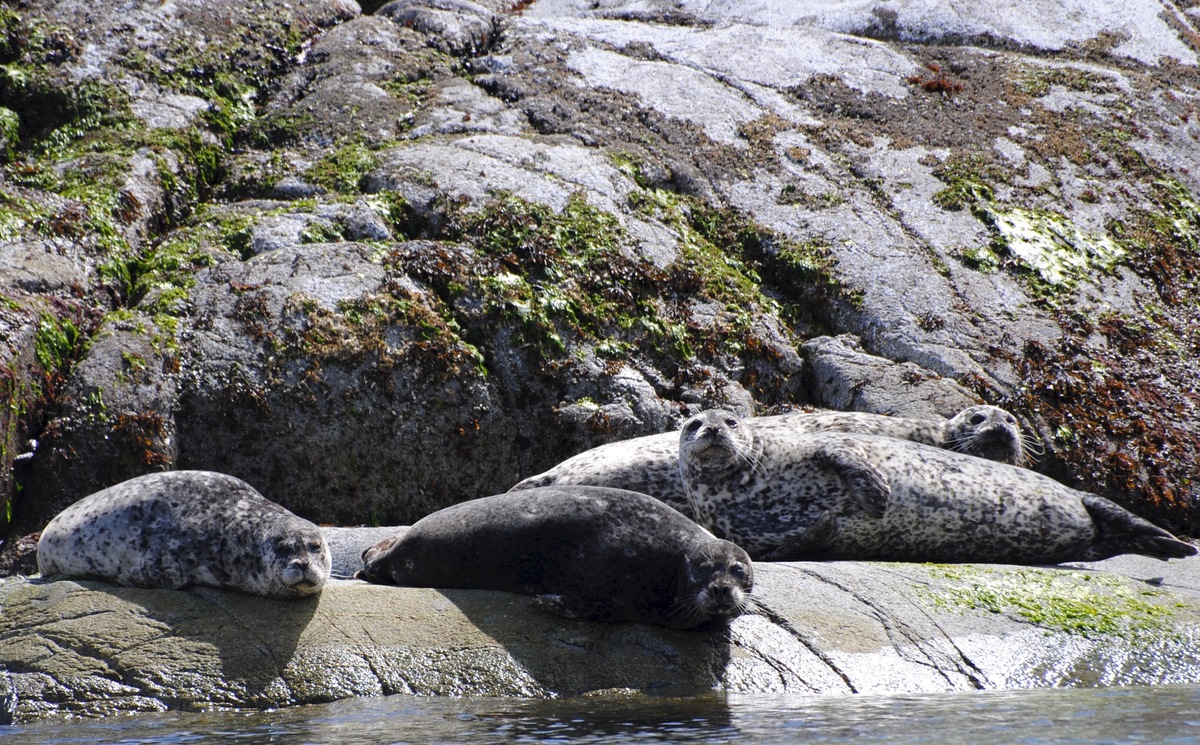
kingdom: Animalia
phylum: Chordata
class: Mammalia
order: Carnivora
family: Phocidae
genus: Phoca
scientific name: Phoca vitulina
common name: Harbor seal
